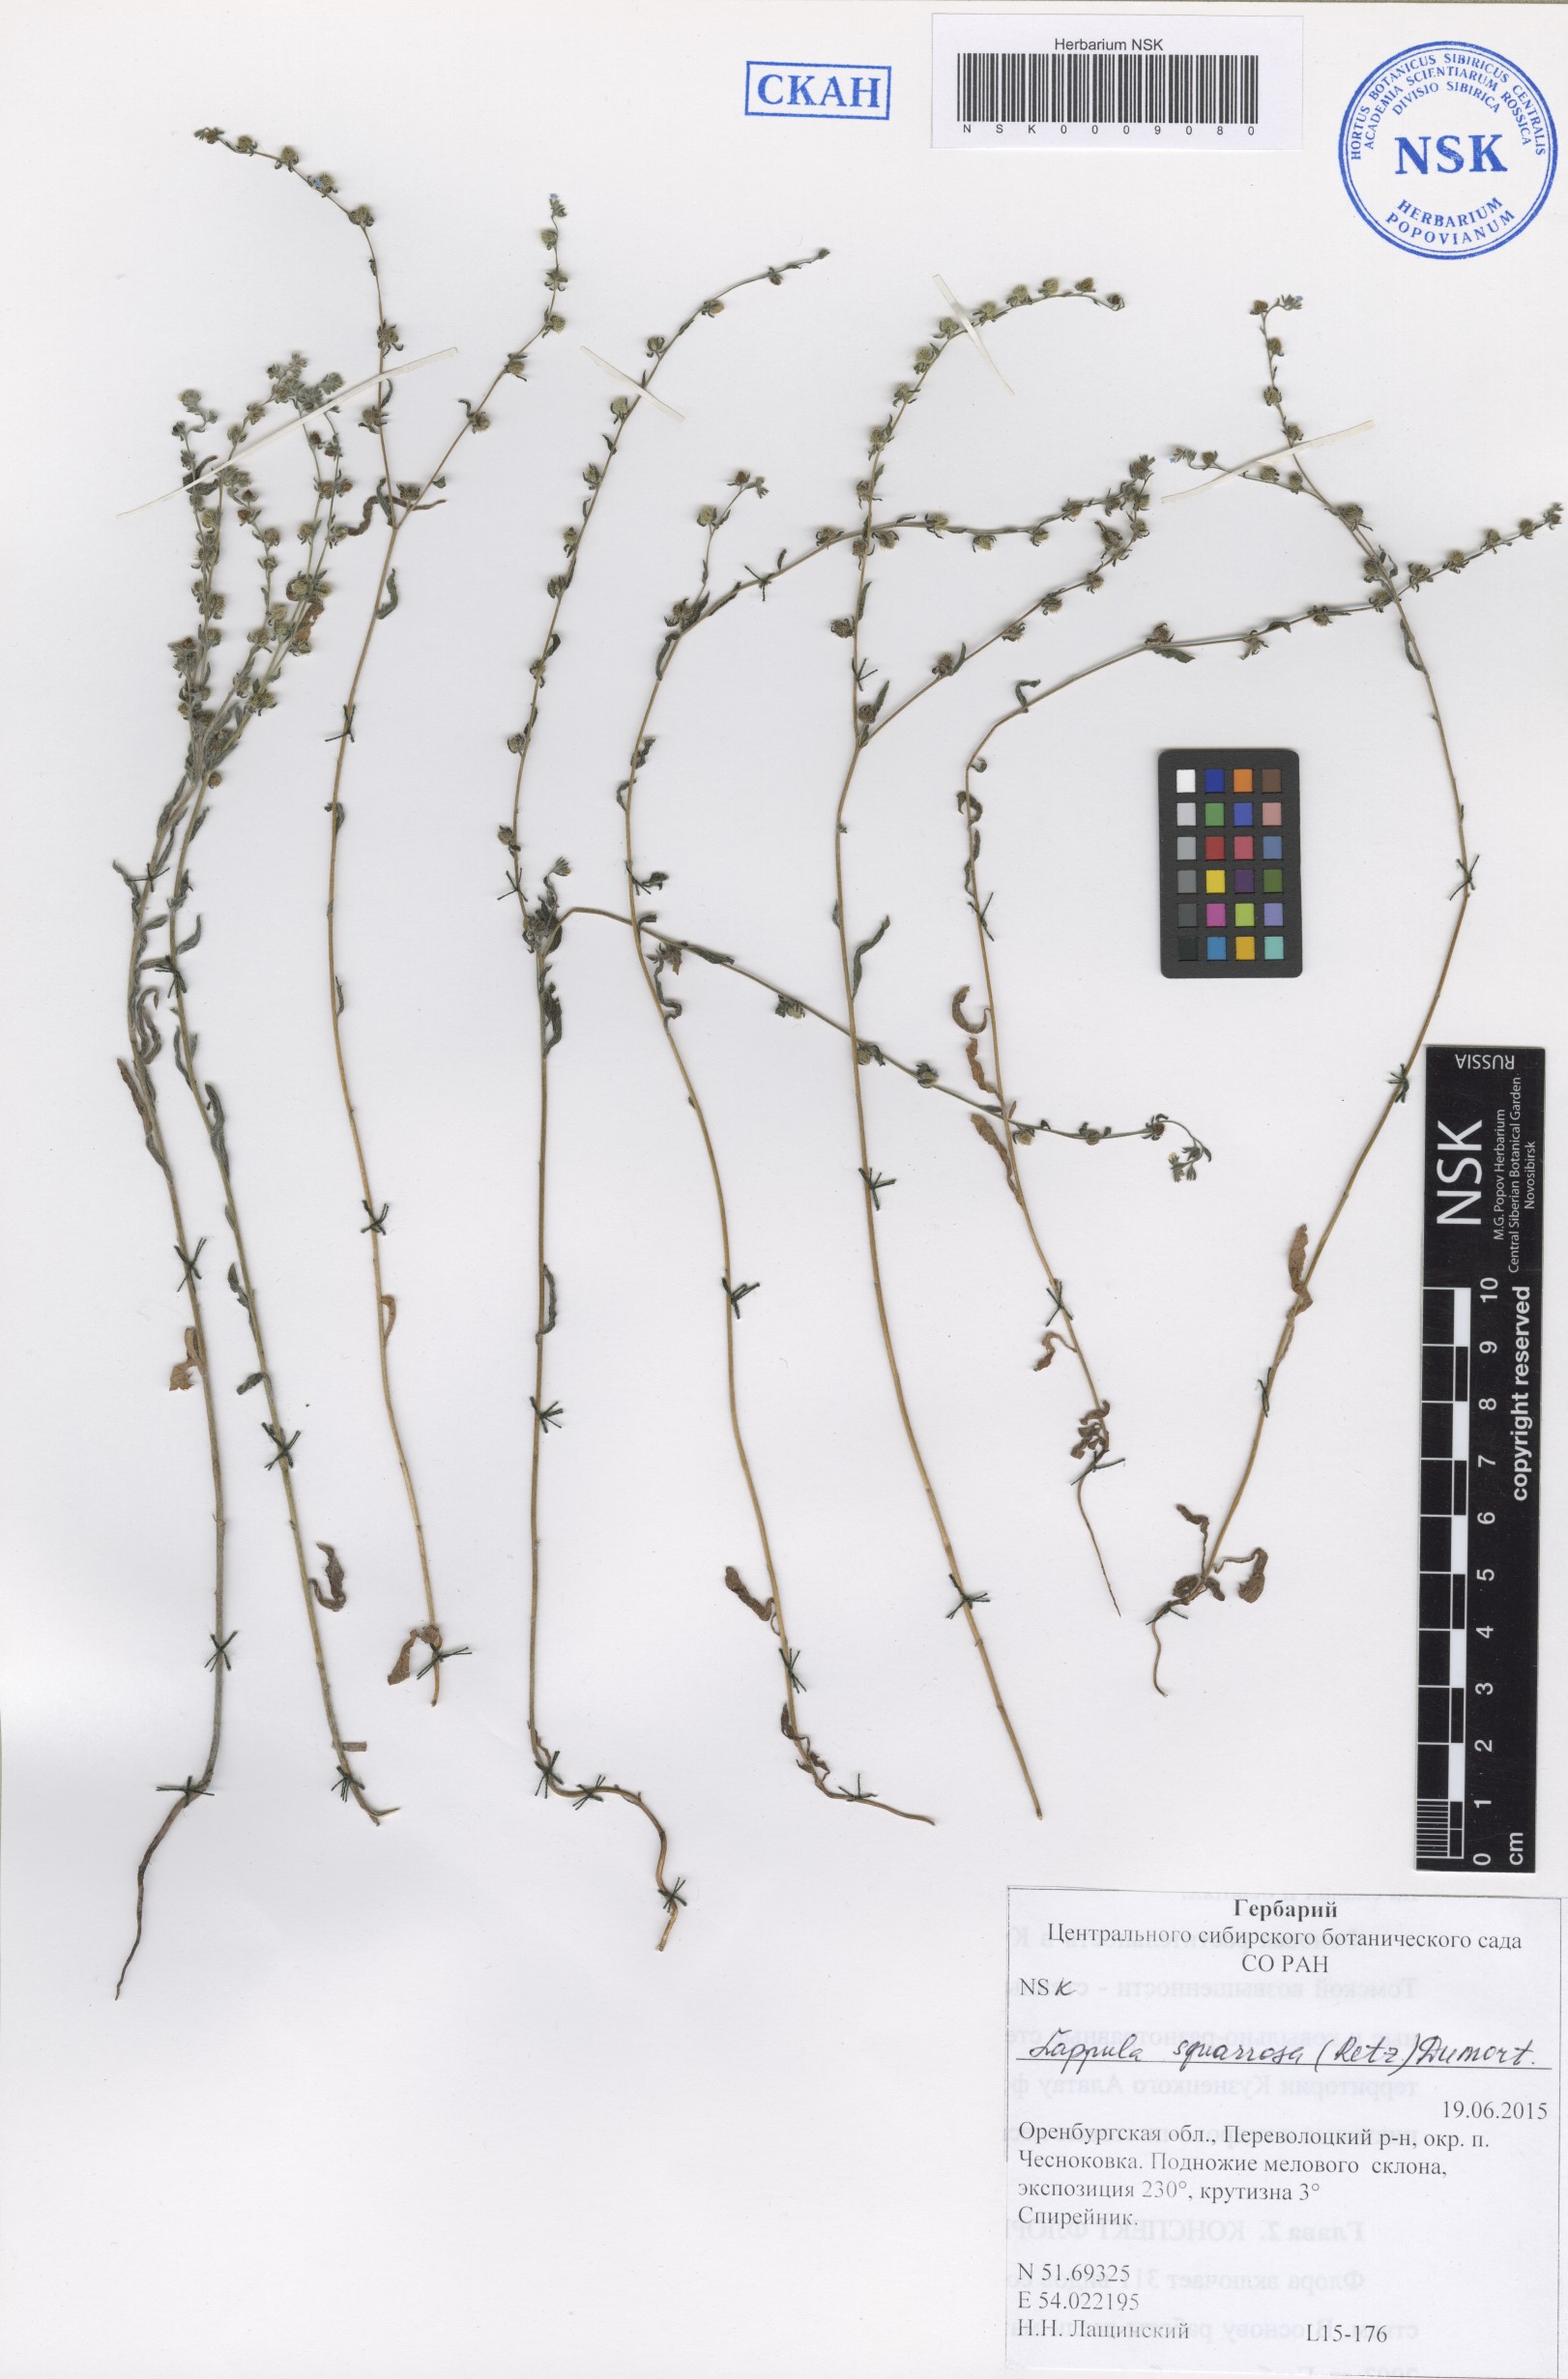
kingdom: Plantae
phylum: Tracheophyta
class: Magnoliopsida
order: Boraginales
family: Boraginaceae
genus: Lappula
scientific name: Lappula squarrosa
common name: European stickseed
